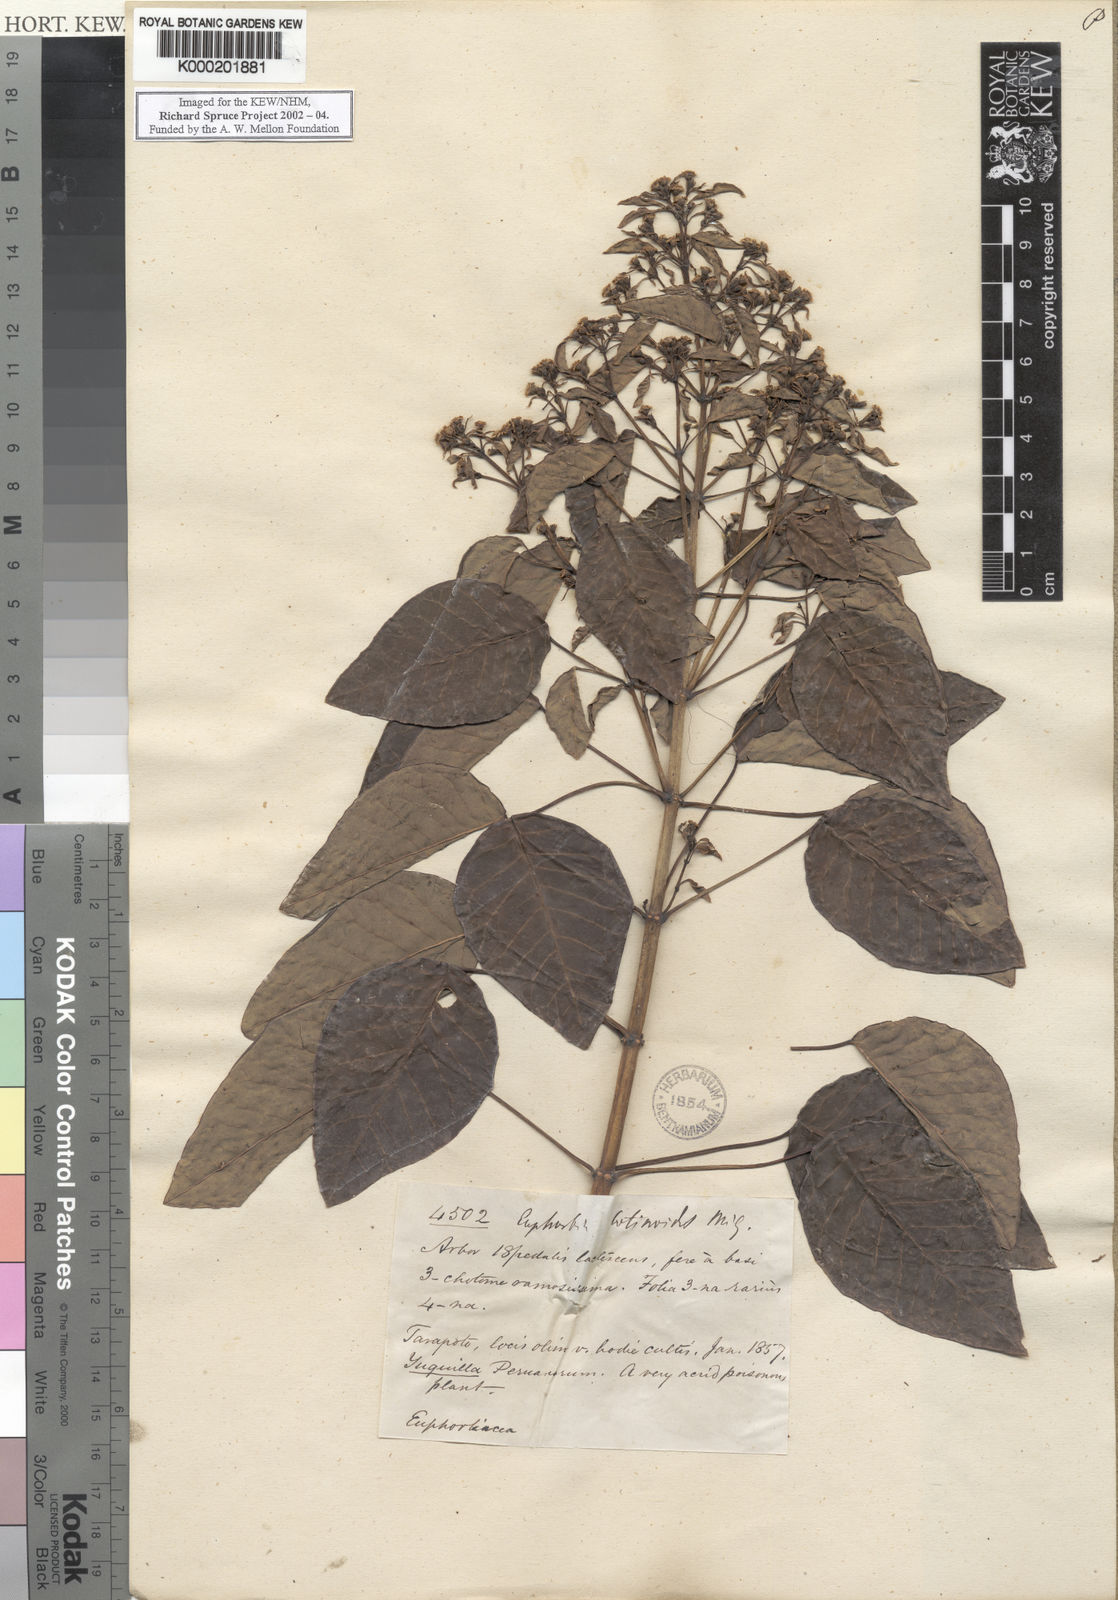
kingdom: Plantae
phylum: Tracheophyta
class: Magnoliopsida
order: Malpighiales
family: Euphorbiaceae
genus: Euphorbia
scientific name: Euphorbia cotinifolia
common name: Tropical smokebush
